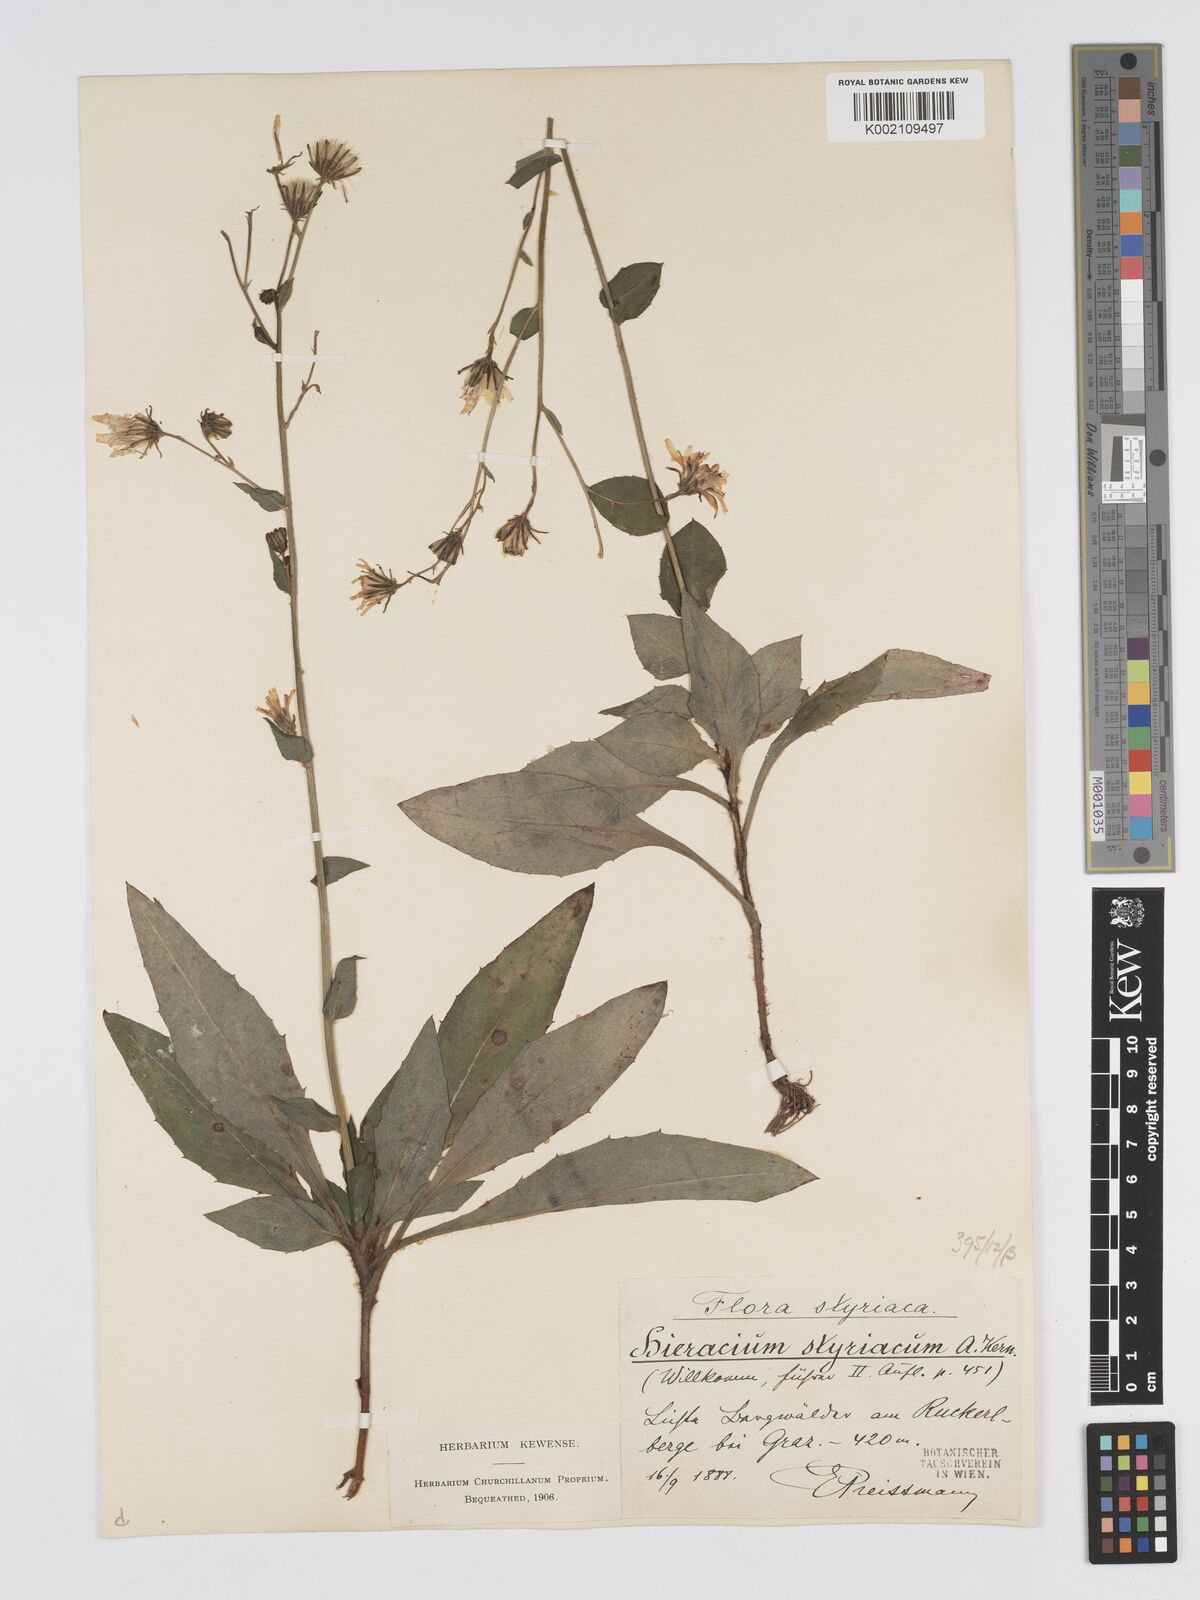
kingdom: Plantae
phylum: Tracheophyta
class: Magnoliopsida
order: Asterales
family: Asteraceae
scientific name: Asteraceae
